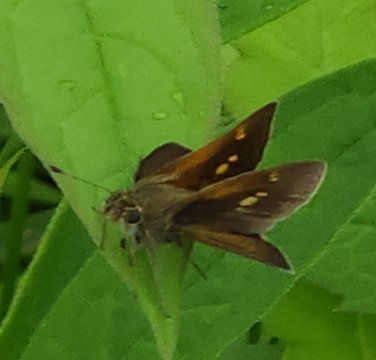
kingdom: Animalia
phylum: Arthropoda
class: Insecta
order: Lepidoptera
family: Hesperiidae
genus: Polites
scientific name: Polites
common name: Crossline Skipper
